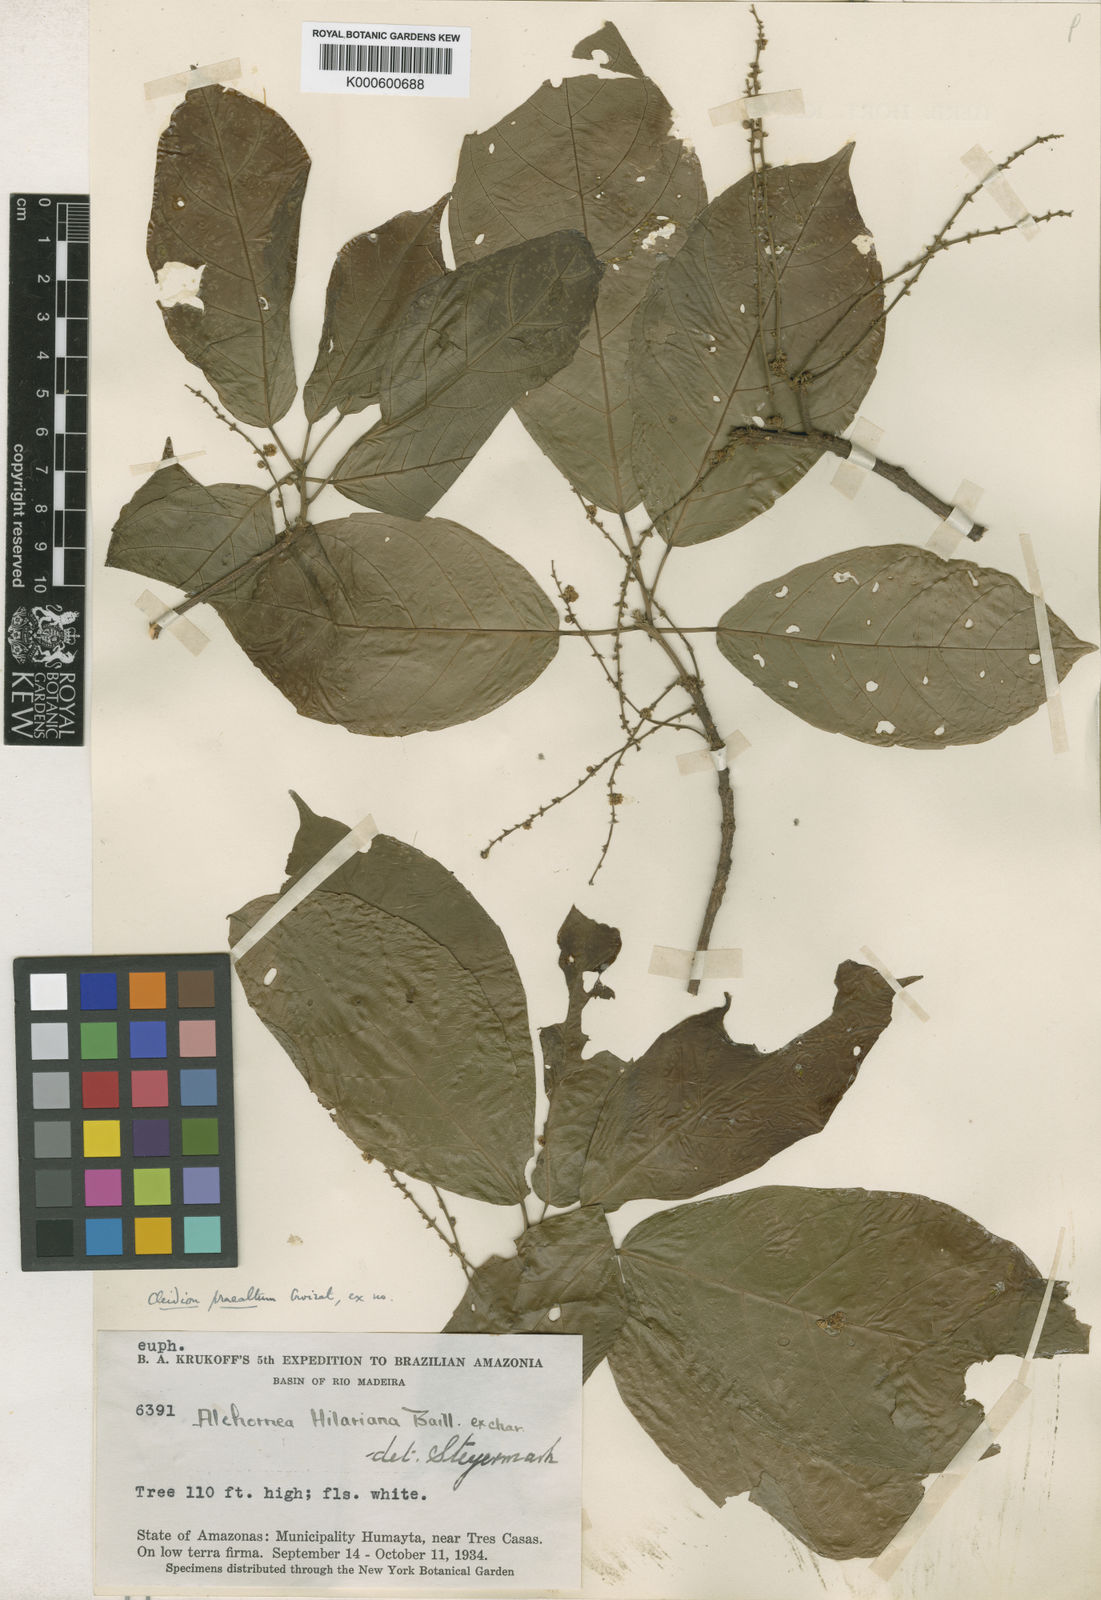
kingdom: Plantae
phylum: Tracheophyta
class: Magnoliopsida
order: Malpighiales
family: Euphorbiaceae
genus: Conceveiba
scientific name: Conceveiba
